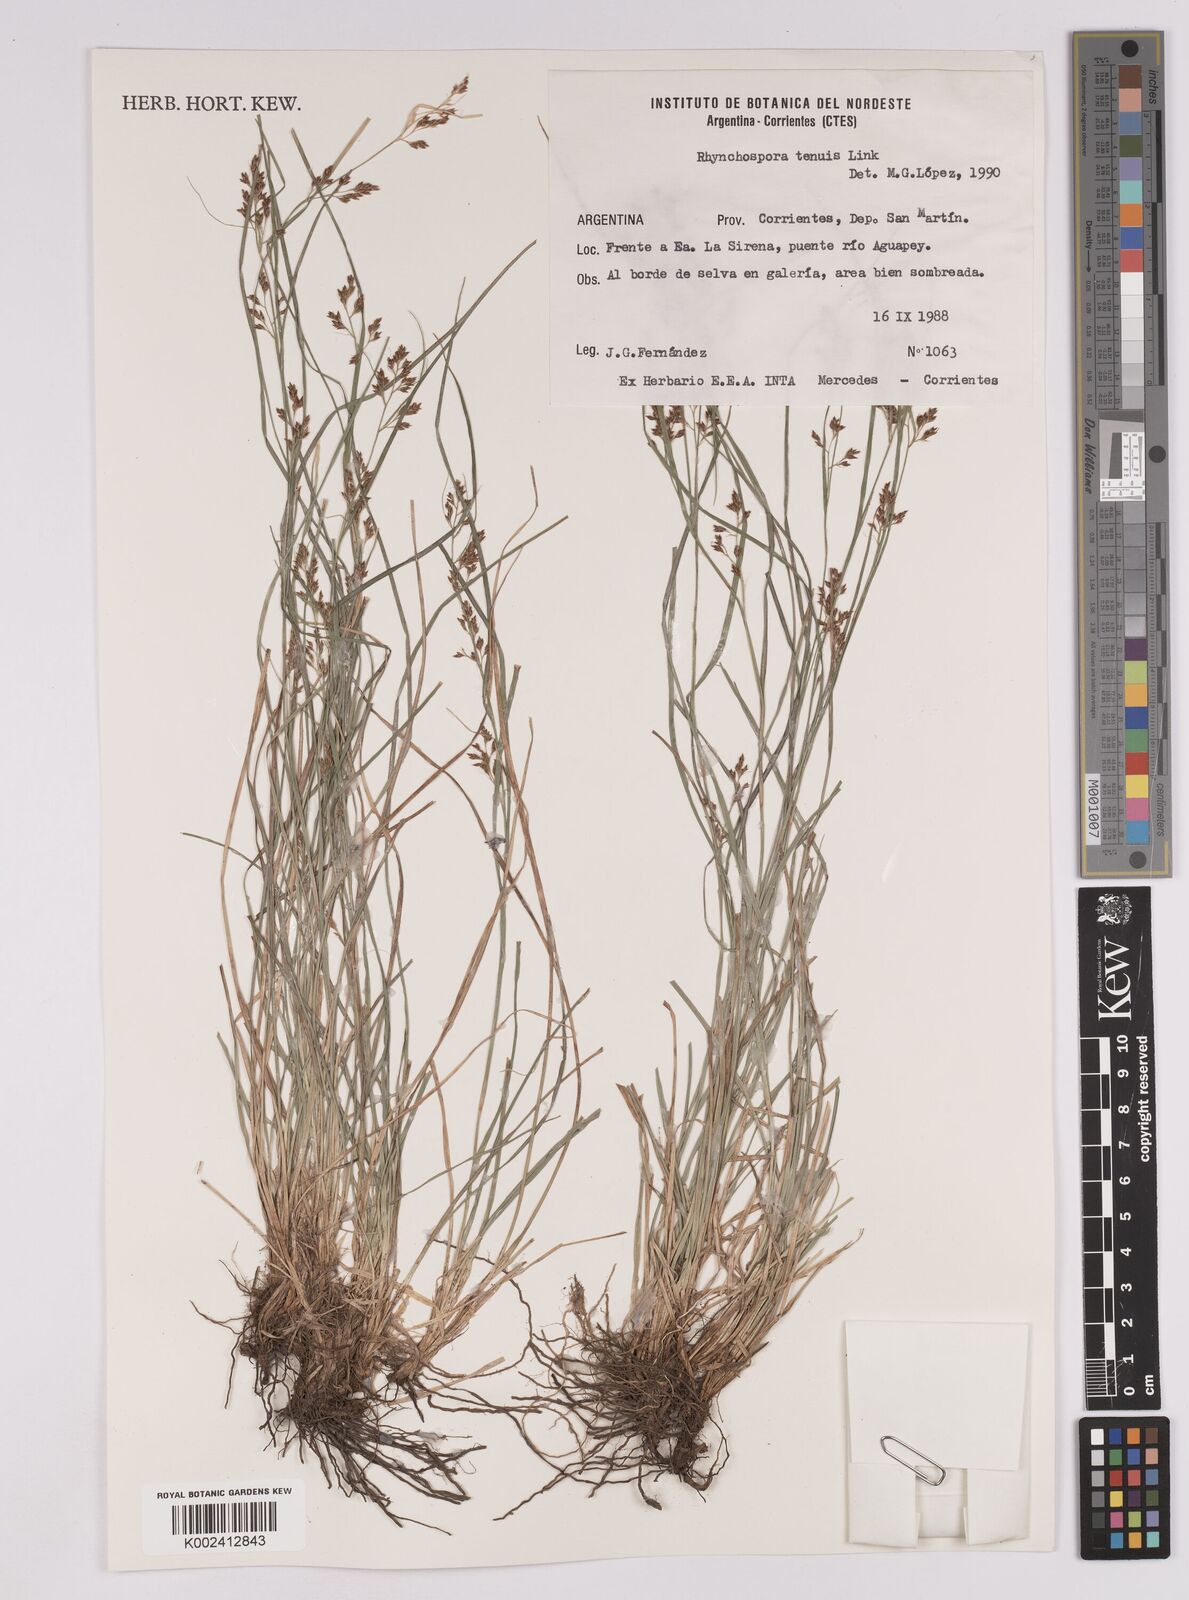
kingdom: Plantae
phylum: Tracheophyta
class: Liliopsida
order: Poales
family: Cyperaceae
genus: Rhynchospora
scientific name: Rhynchospora tenuis
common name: Quill beaksedge
